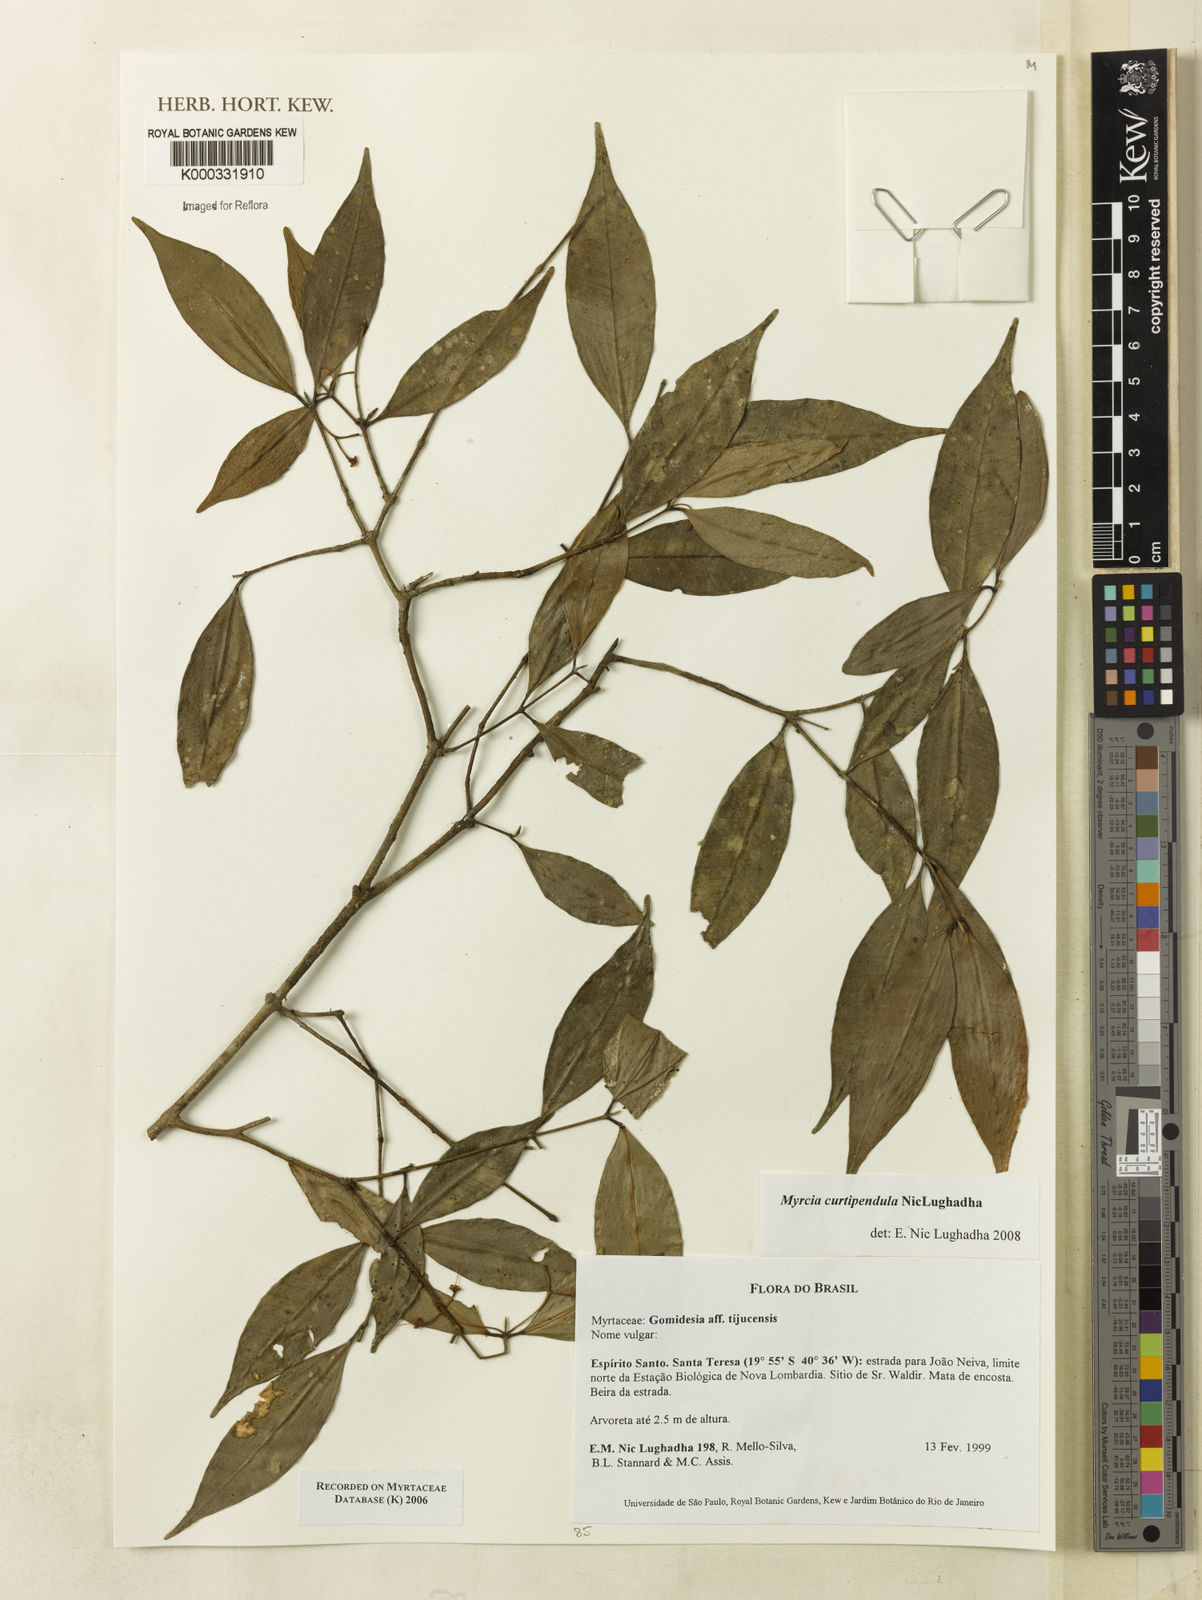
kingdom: Plantae
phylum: Tracheophyta
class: Magnoliopsida
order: Myrtales
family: Myrtaceae
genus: Myrcia
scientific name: Myrcia tijucensis
